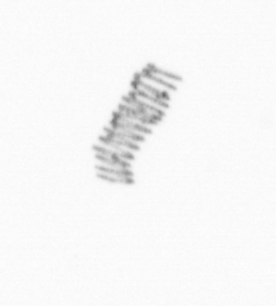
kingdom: Chromista
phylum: Ochrophyta
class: Bacillariophyceae
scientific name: Bacillariophyceae
